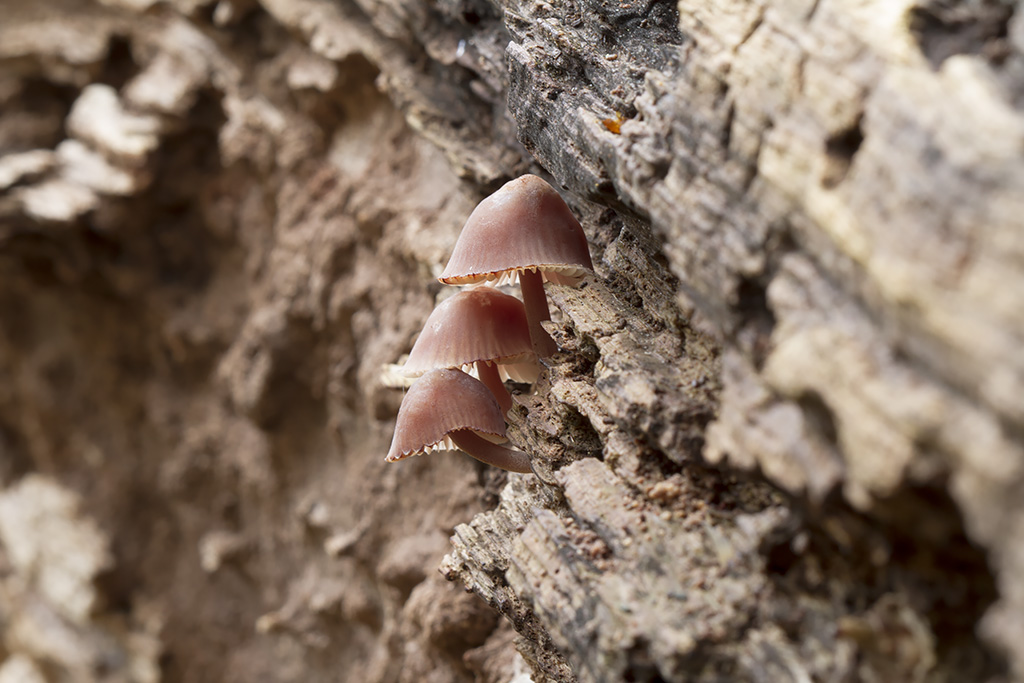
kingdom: Fungi
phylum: Basidiomycota
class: Agaricomycetes
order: Agaricales
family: Mycenaceae
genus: Mycena
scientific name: Mycena haematopus
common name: blødende huesvamp
